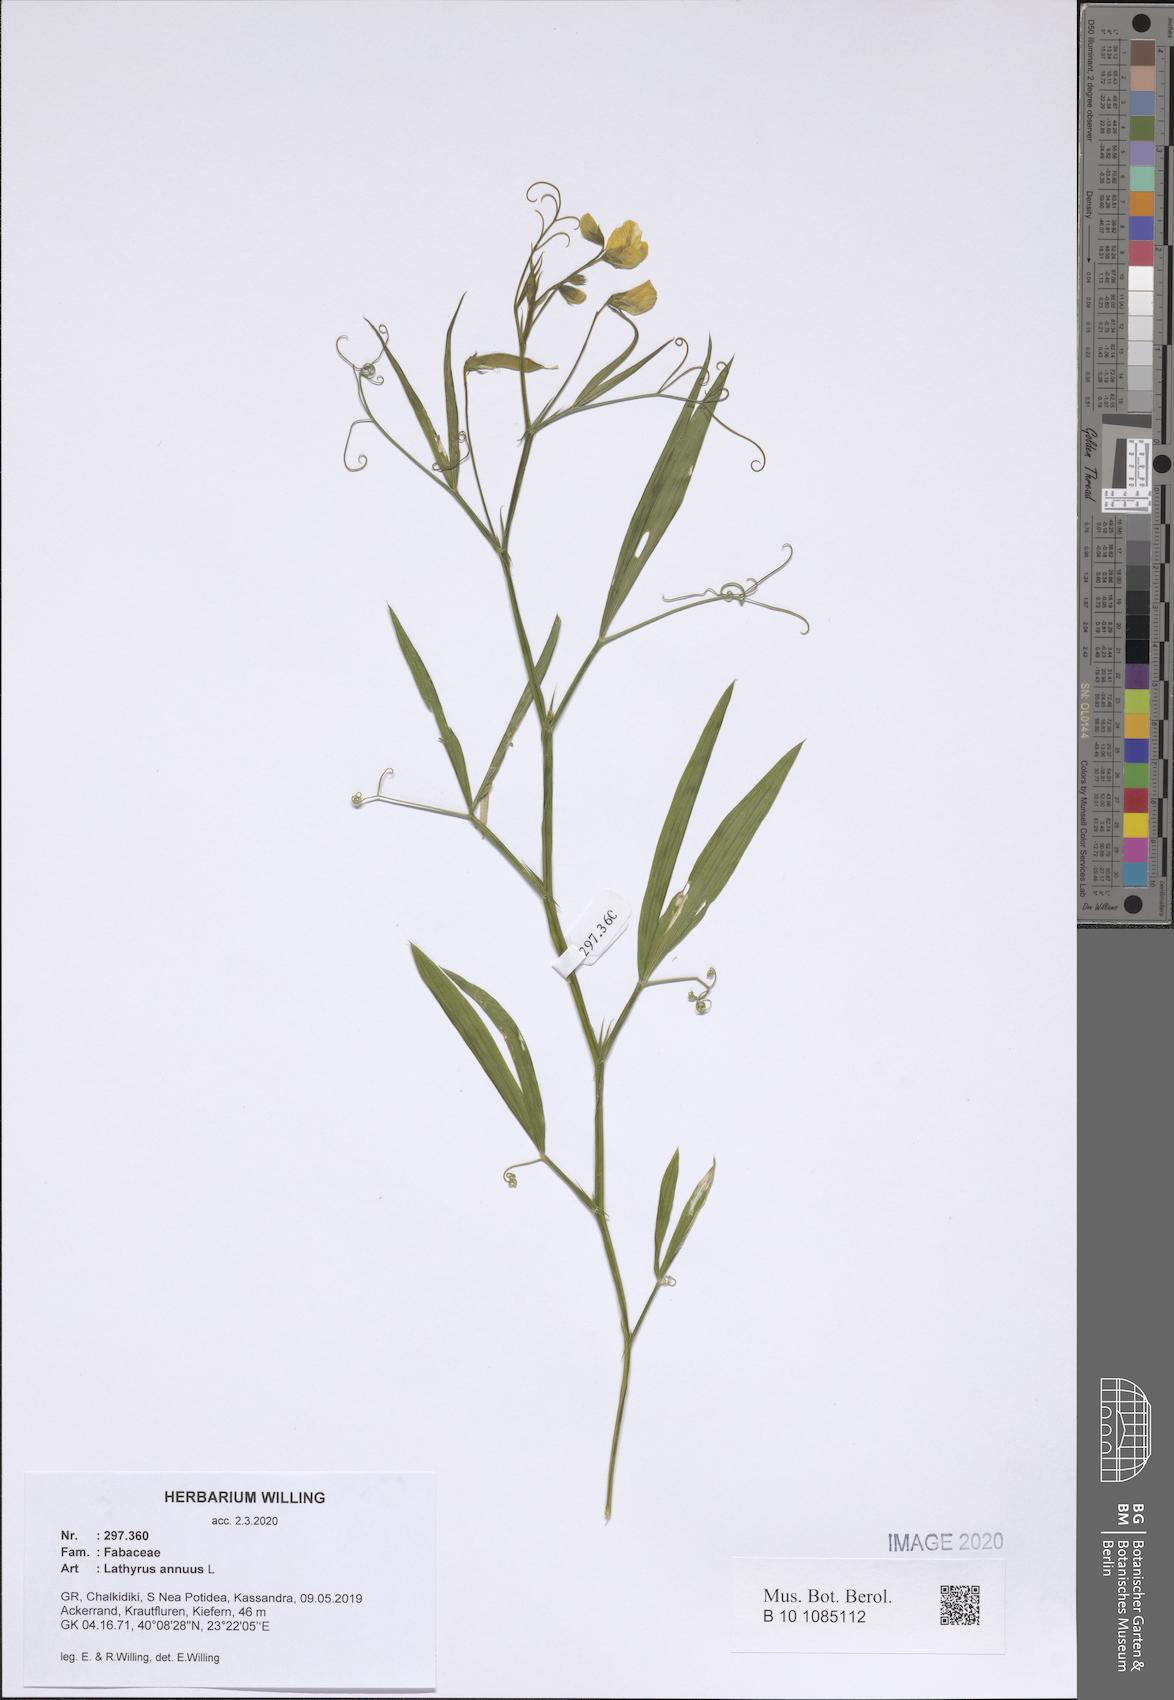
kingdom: Plantae
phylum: Tracheophyta
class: Magnoliopsida
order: Fabales
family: Fabaceae
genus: Lathyrus
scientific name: Lathyrus annuus
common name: Fodder pea
